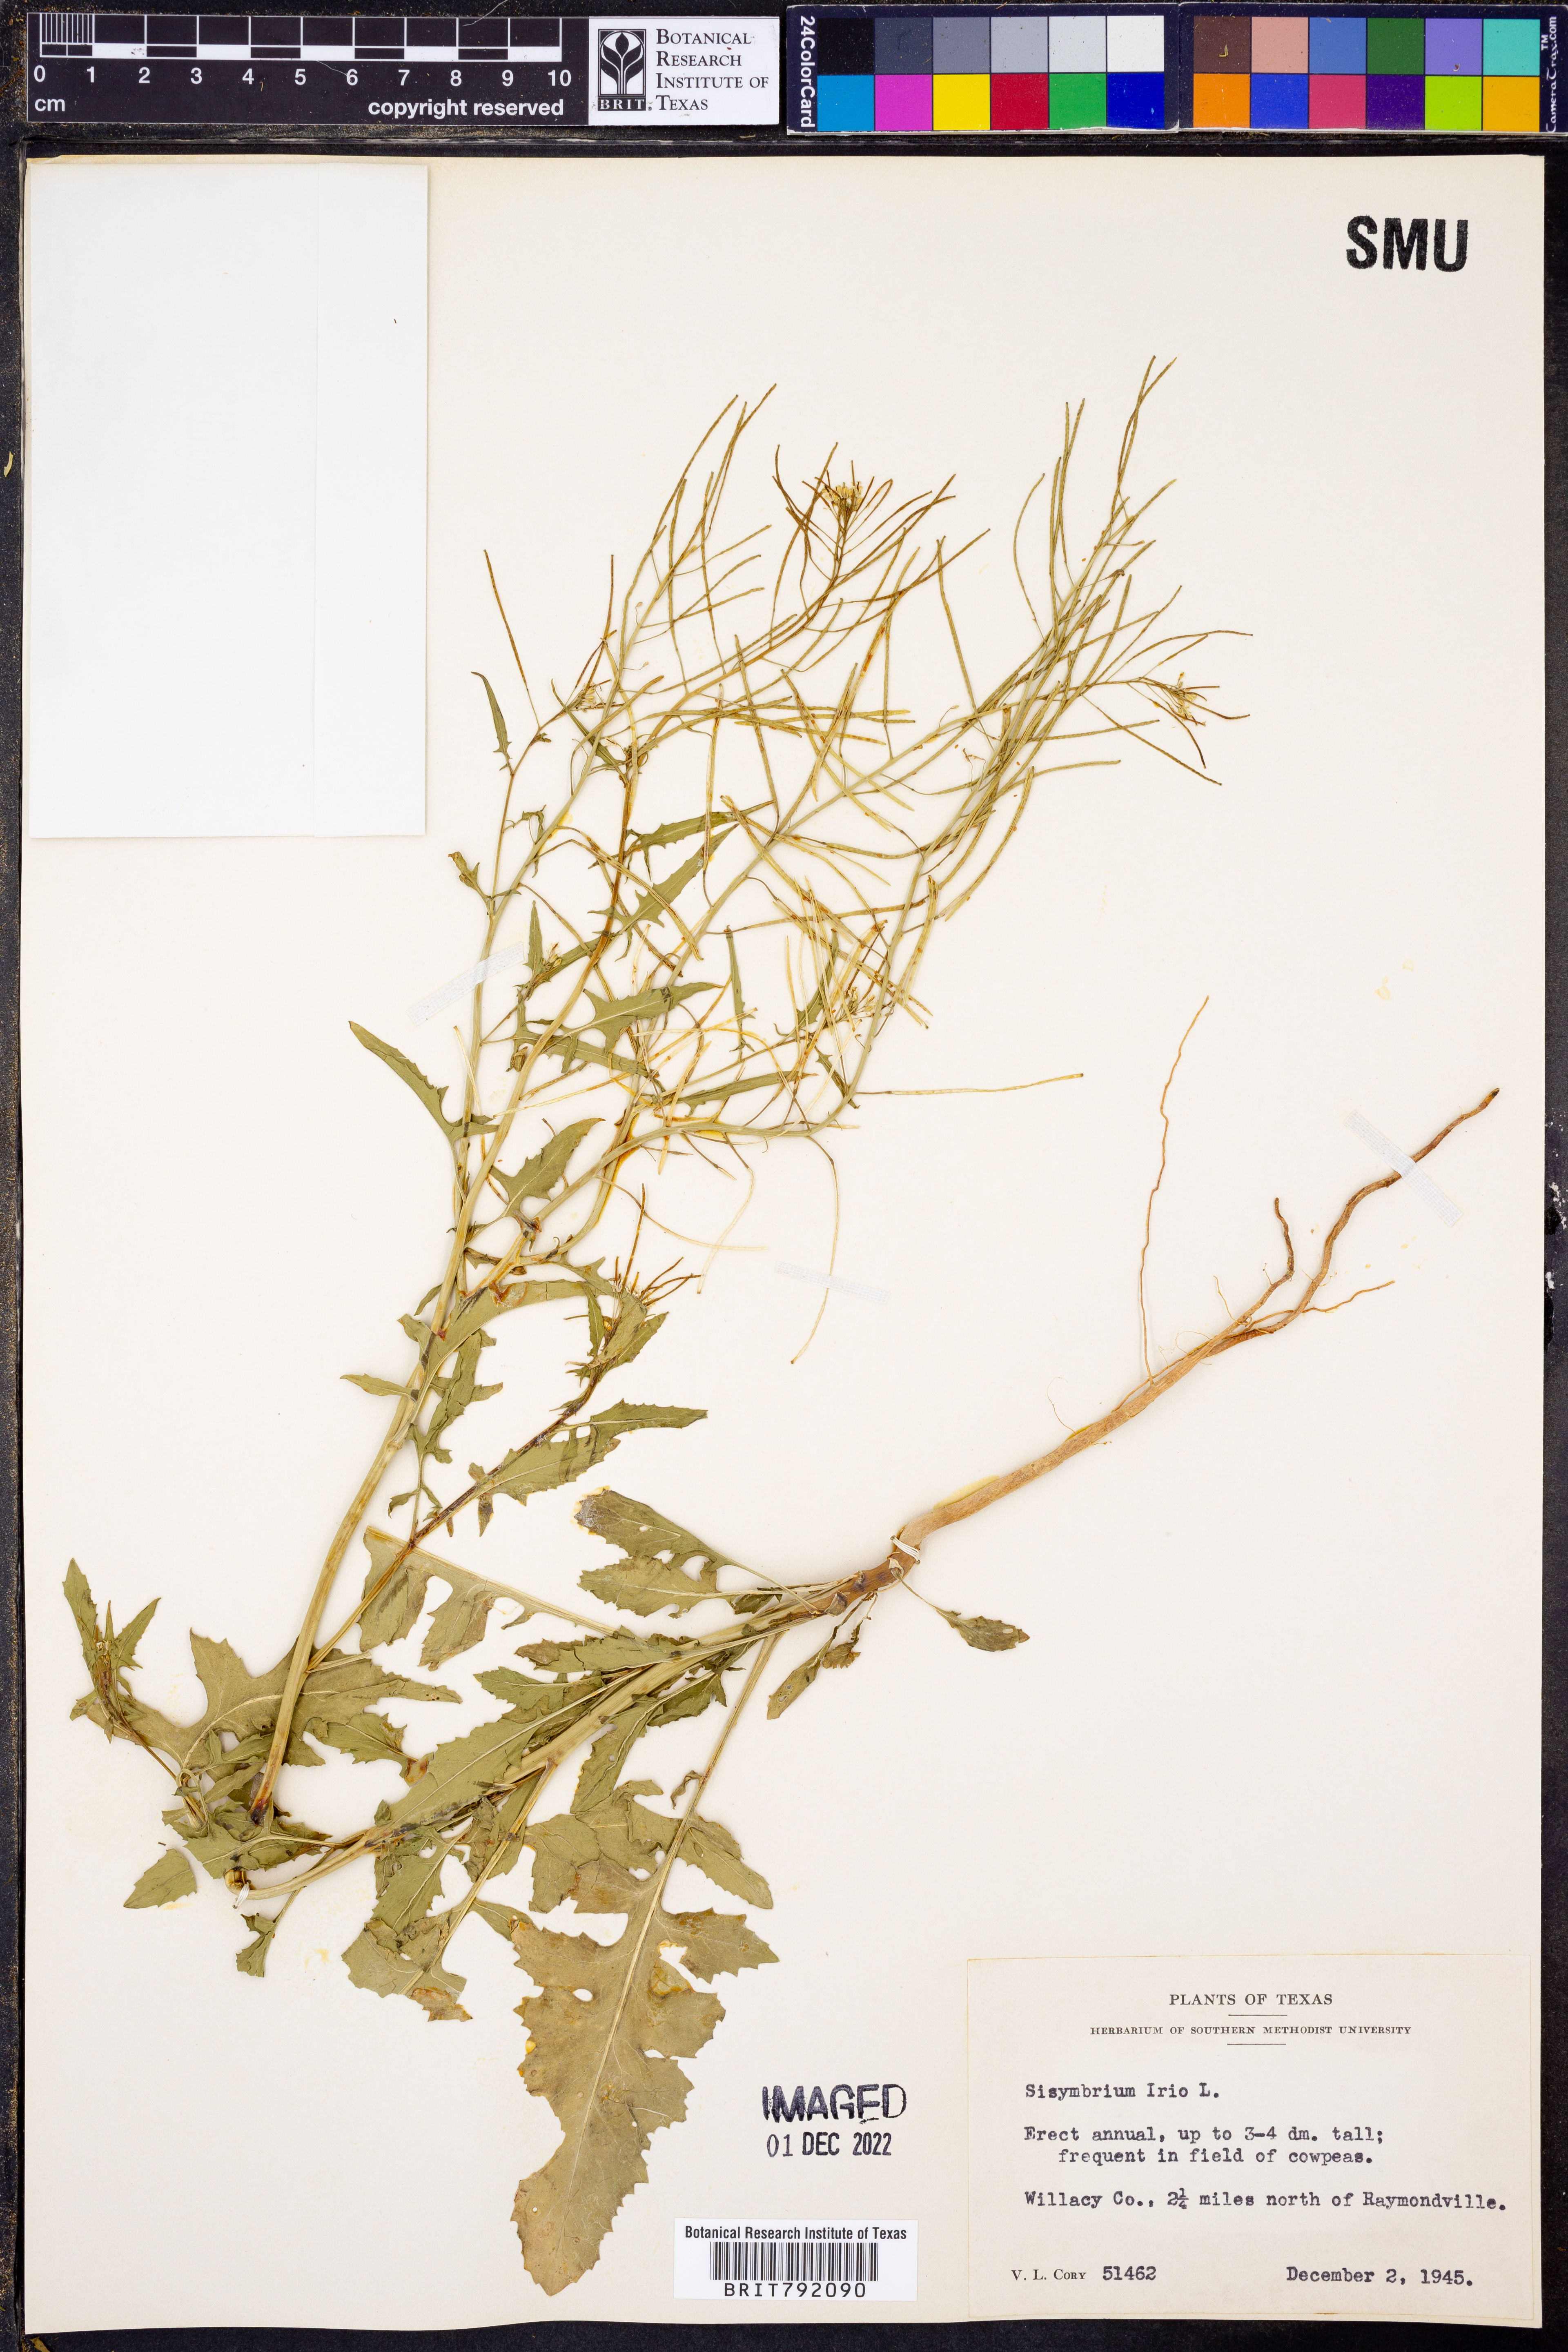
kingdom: Plantae
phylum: Tracheophyta
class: Magnoliopsida
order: Brassicales
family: Brassicaceae
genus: Sisymbrium
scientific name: Sisymbrium irio
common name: London rocket
